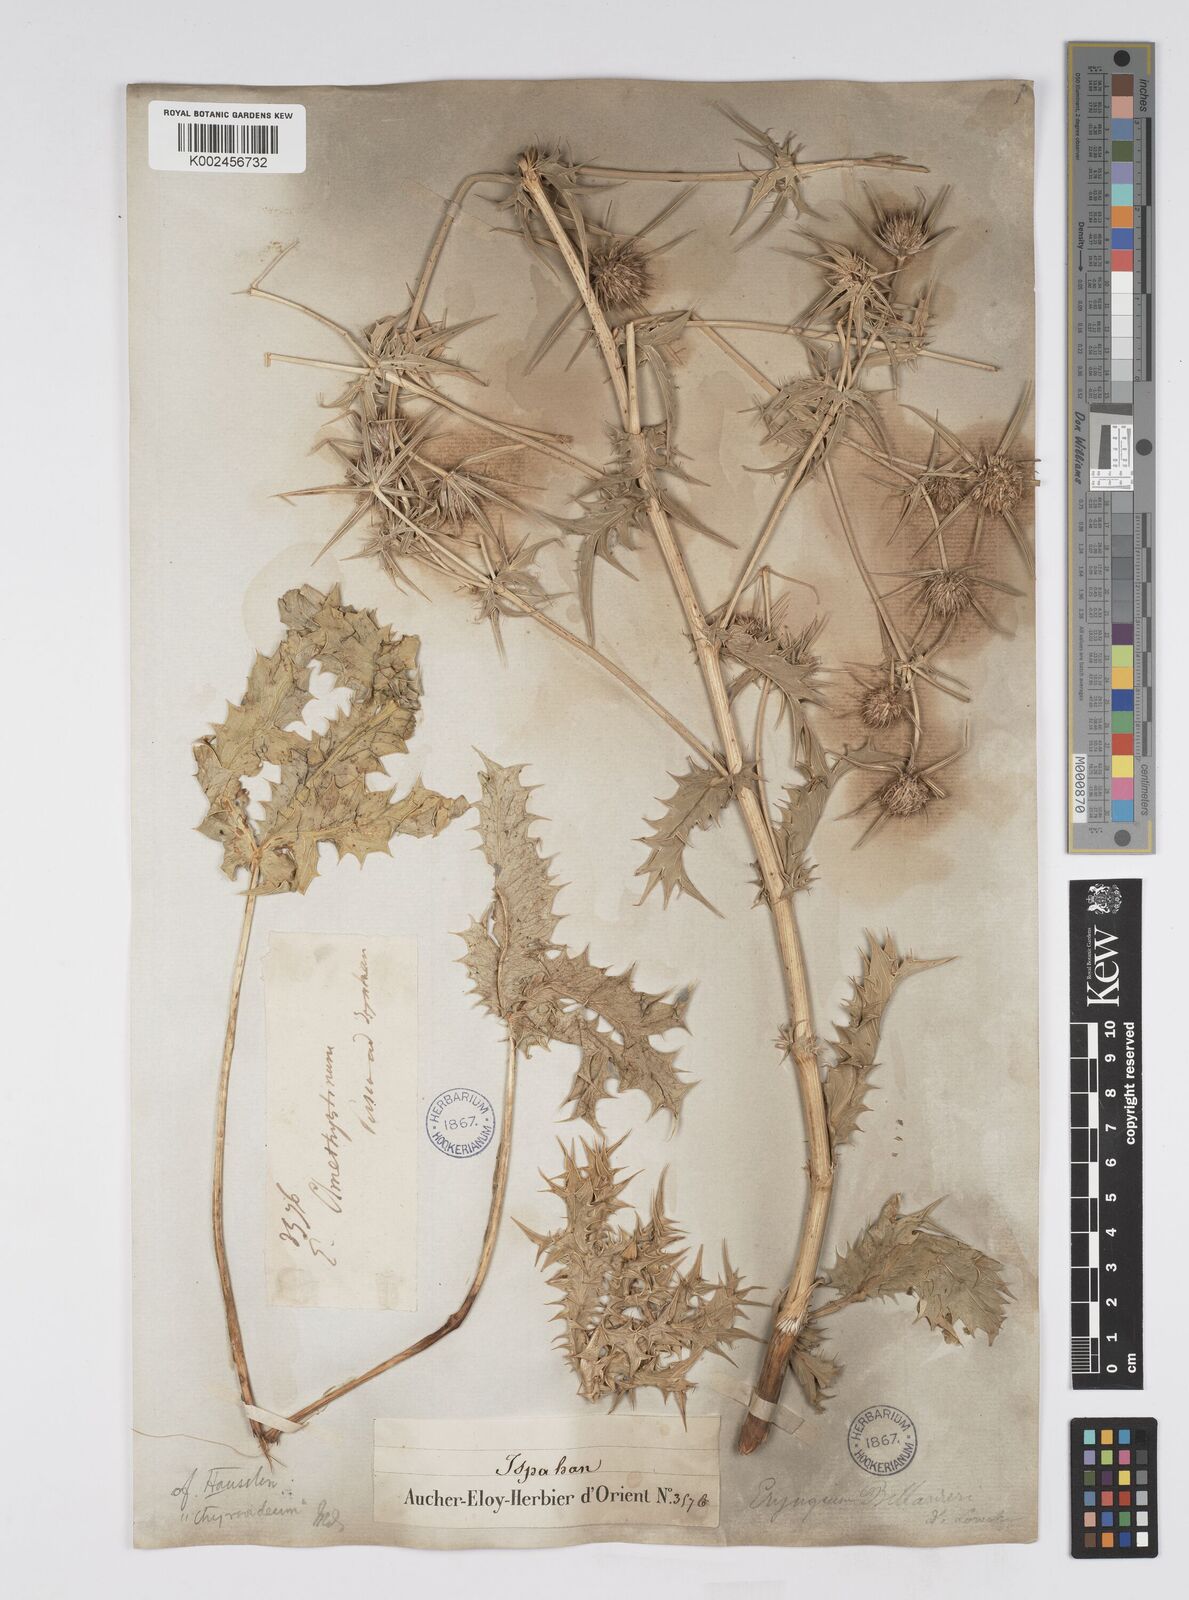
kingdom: Plantae
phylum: Tracheophyta
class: Magnoliopsida
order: Apiales
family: Apiaceae
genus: Eryngium
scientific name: Eryngium billardierei
